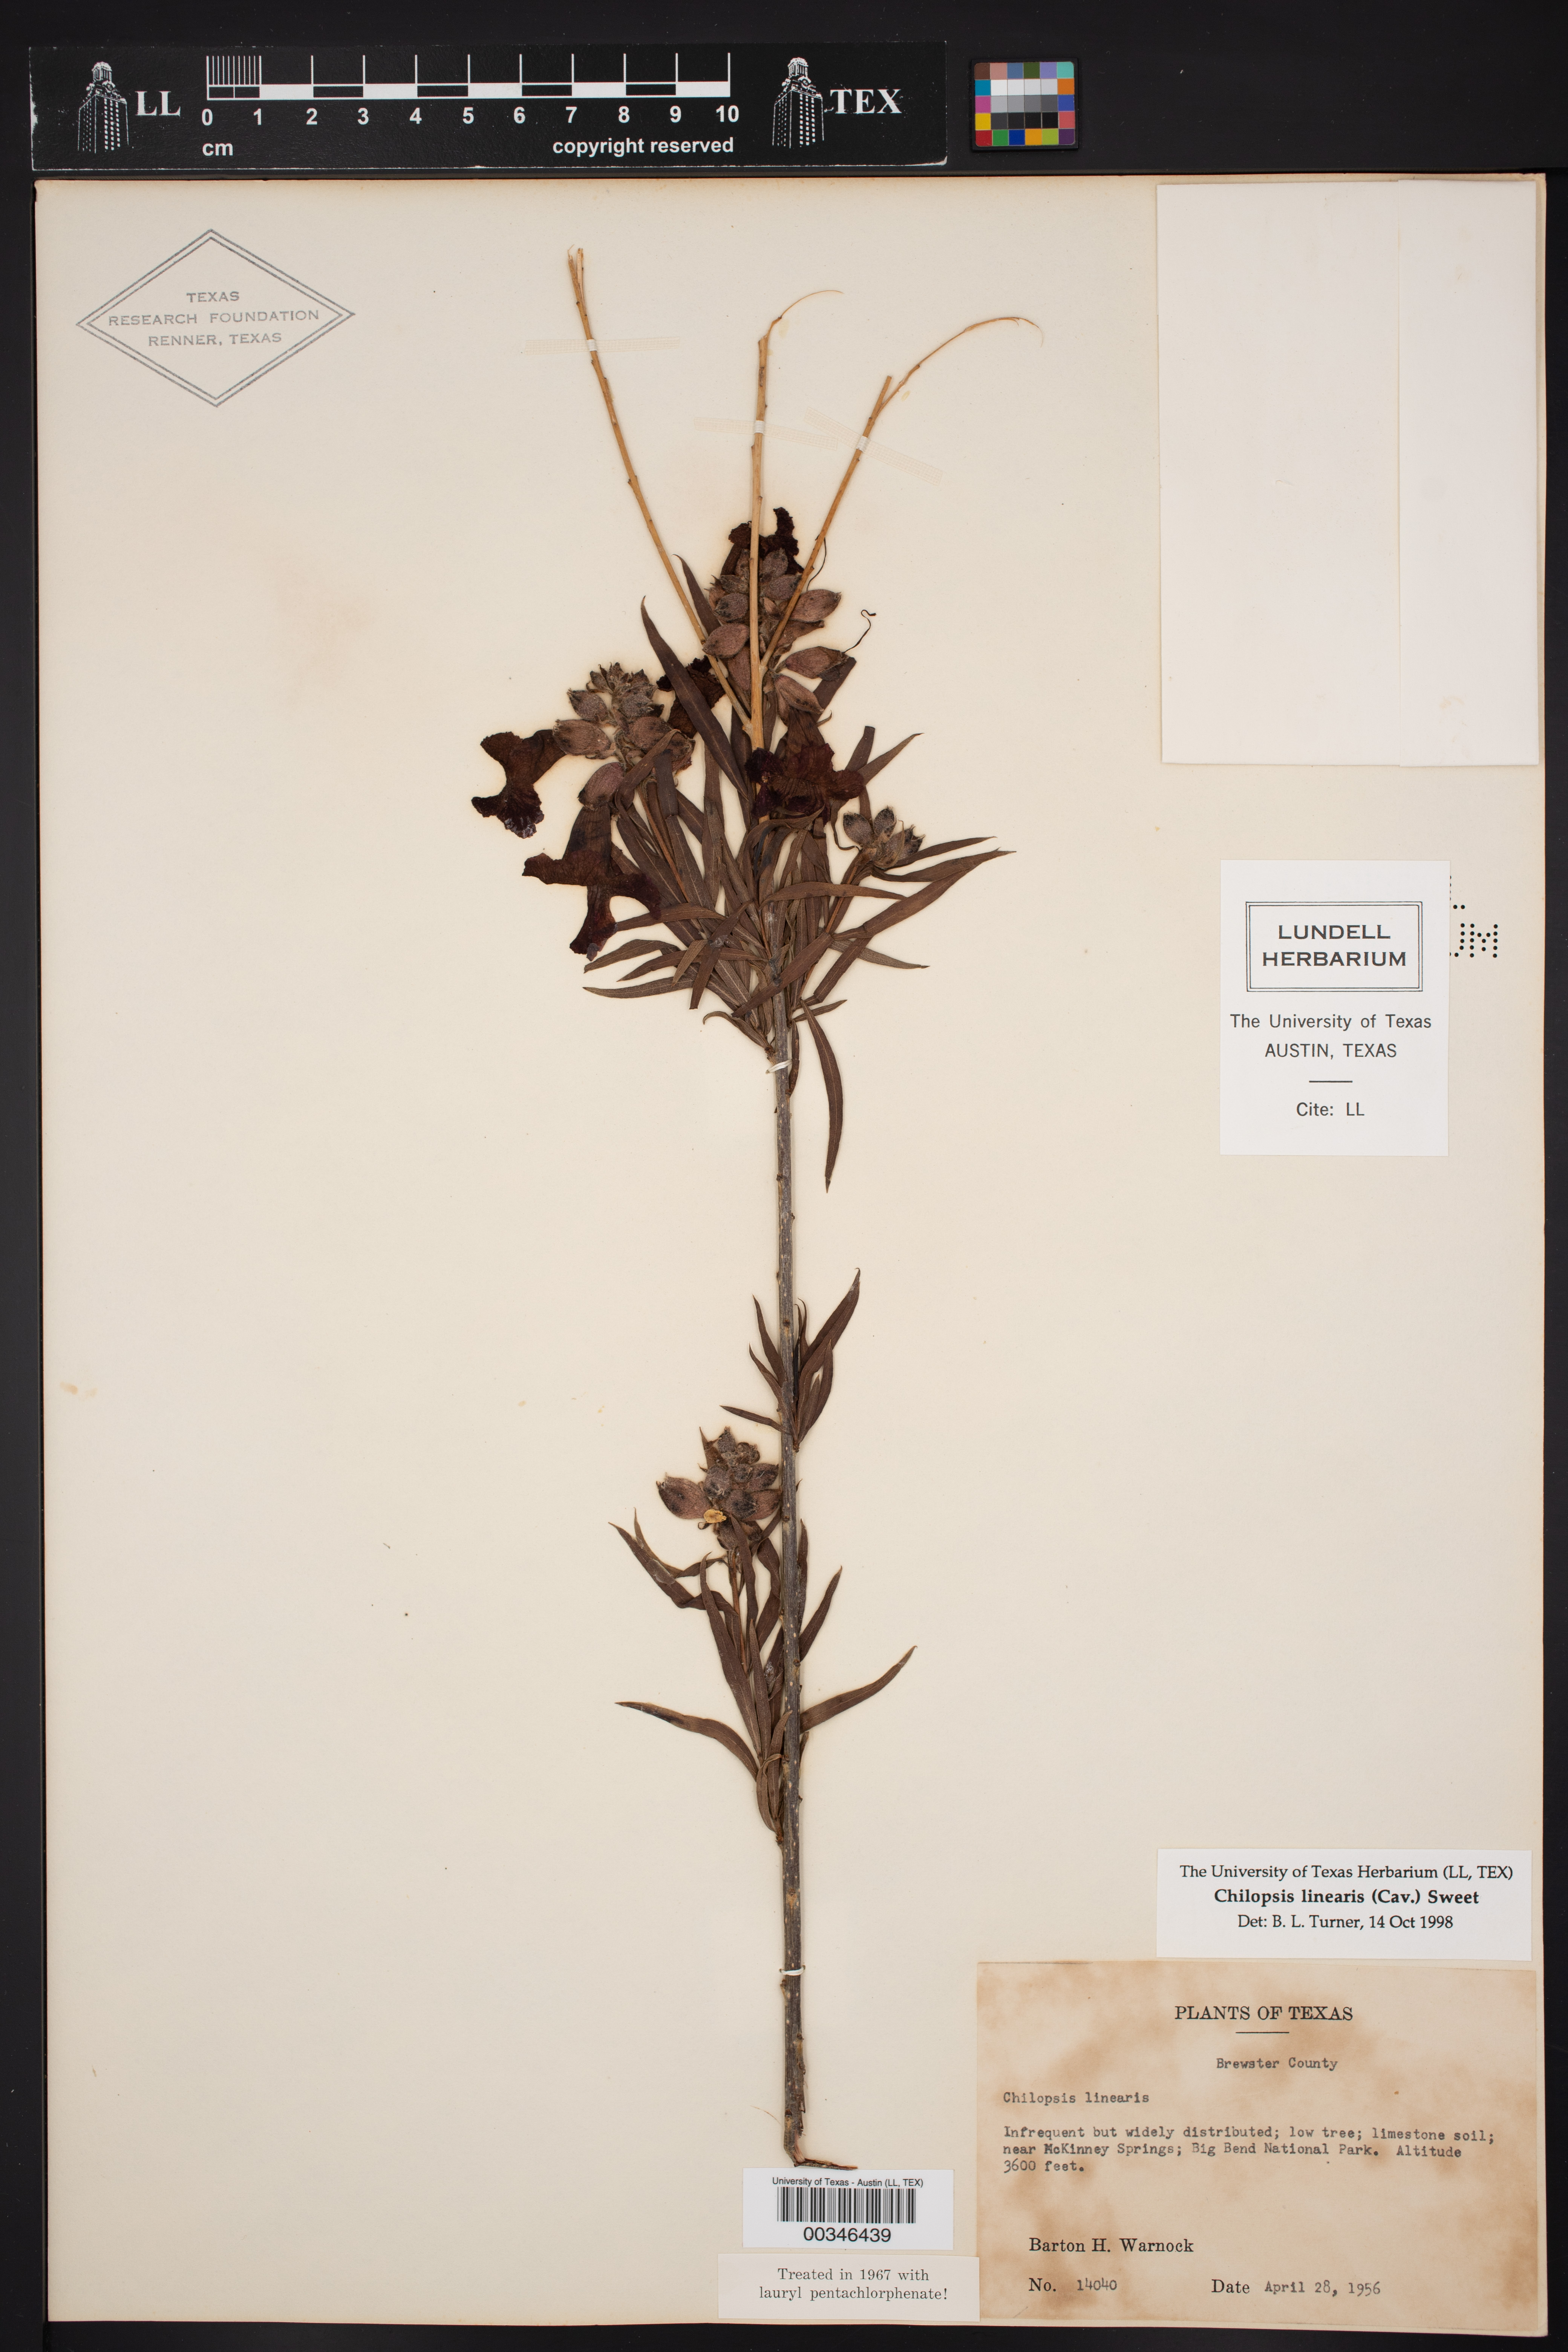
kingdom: Plantae
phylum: Tracheophyta
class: Magnoliopsida
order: Lamiales
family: Bignoniaceae
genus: Chilopsis
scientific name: Chilopsis linearis
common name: Desert-willow
